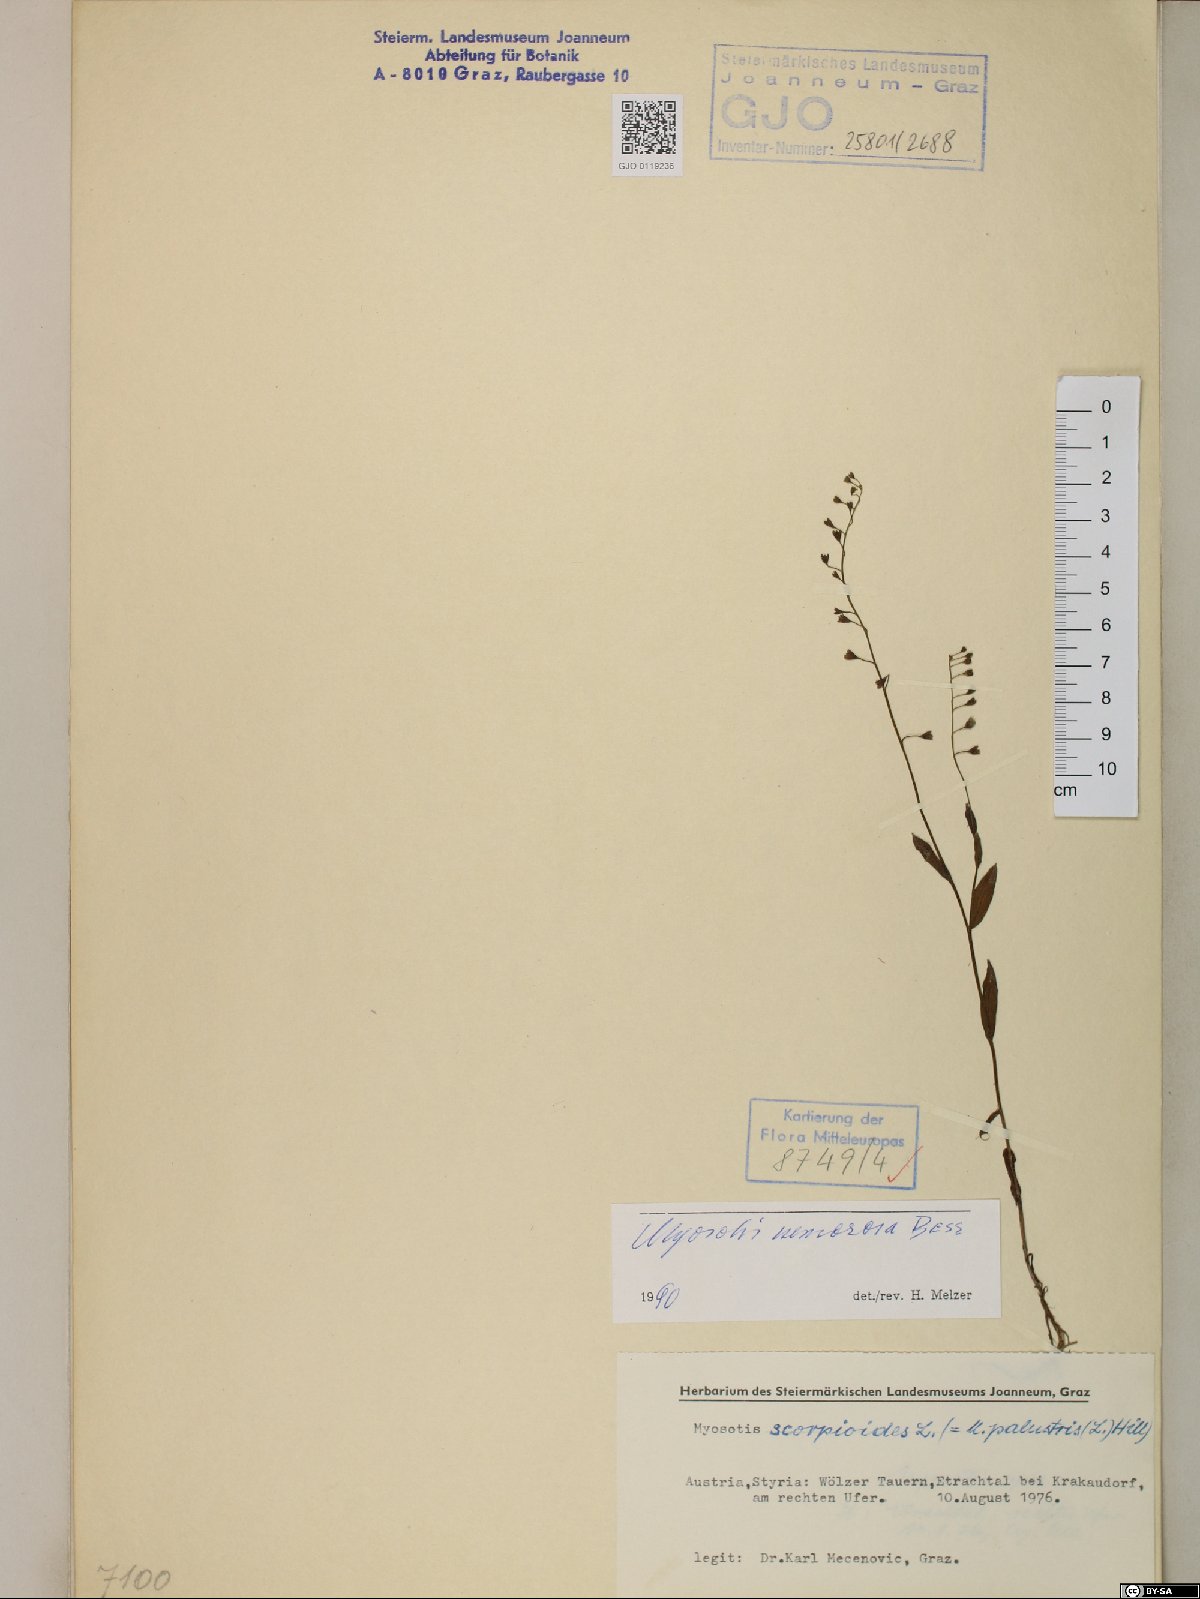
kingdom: Plantae
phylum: Tracheophyta
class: Magnoliopsida
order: Boraginales
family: Boraginaceae
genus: Myosotis
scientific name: Myosotis nemorosa
